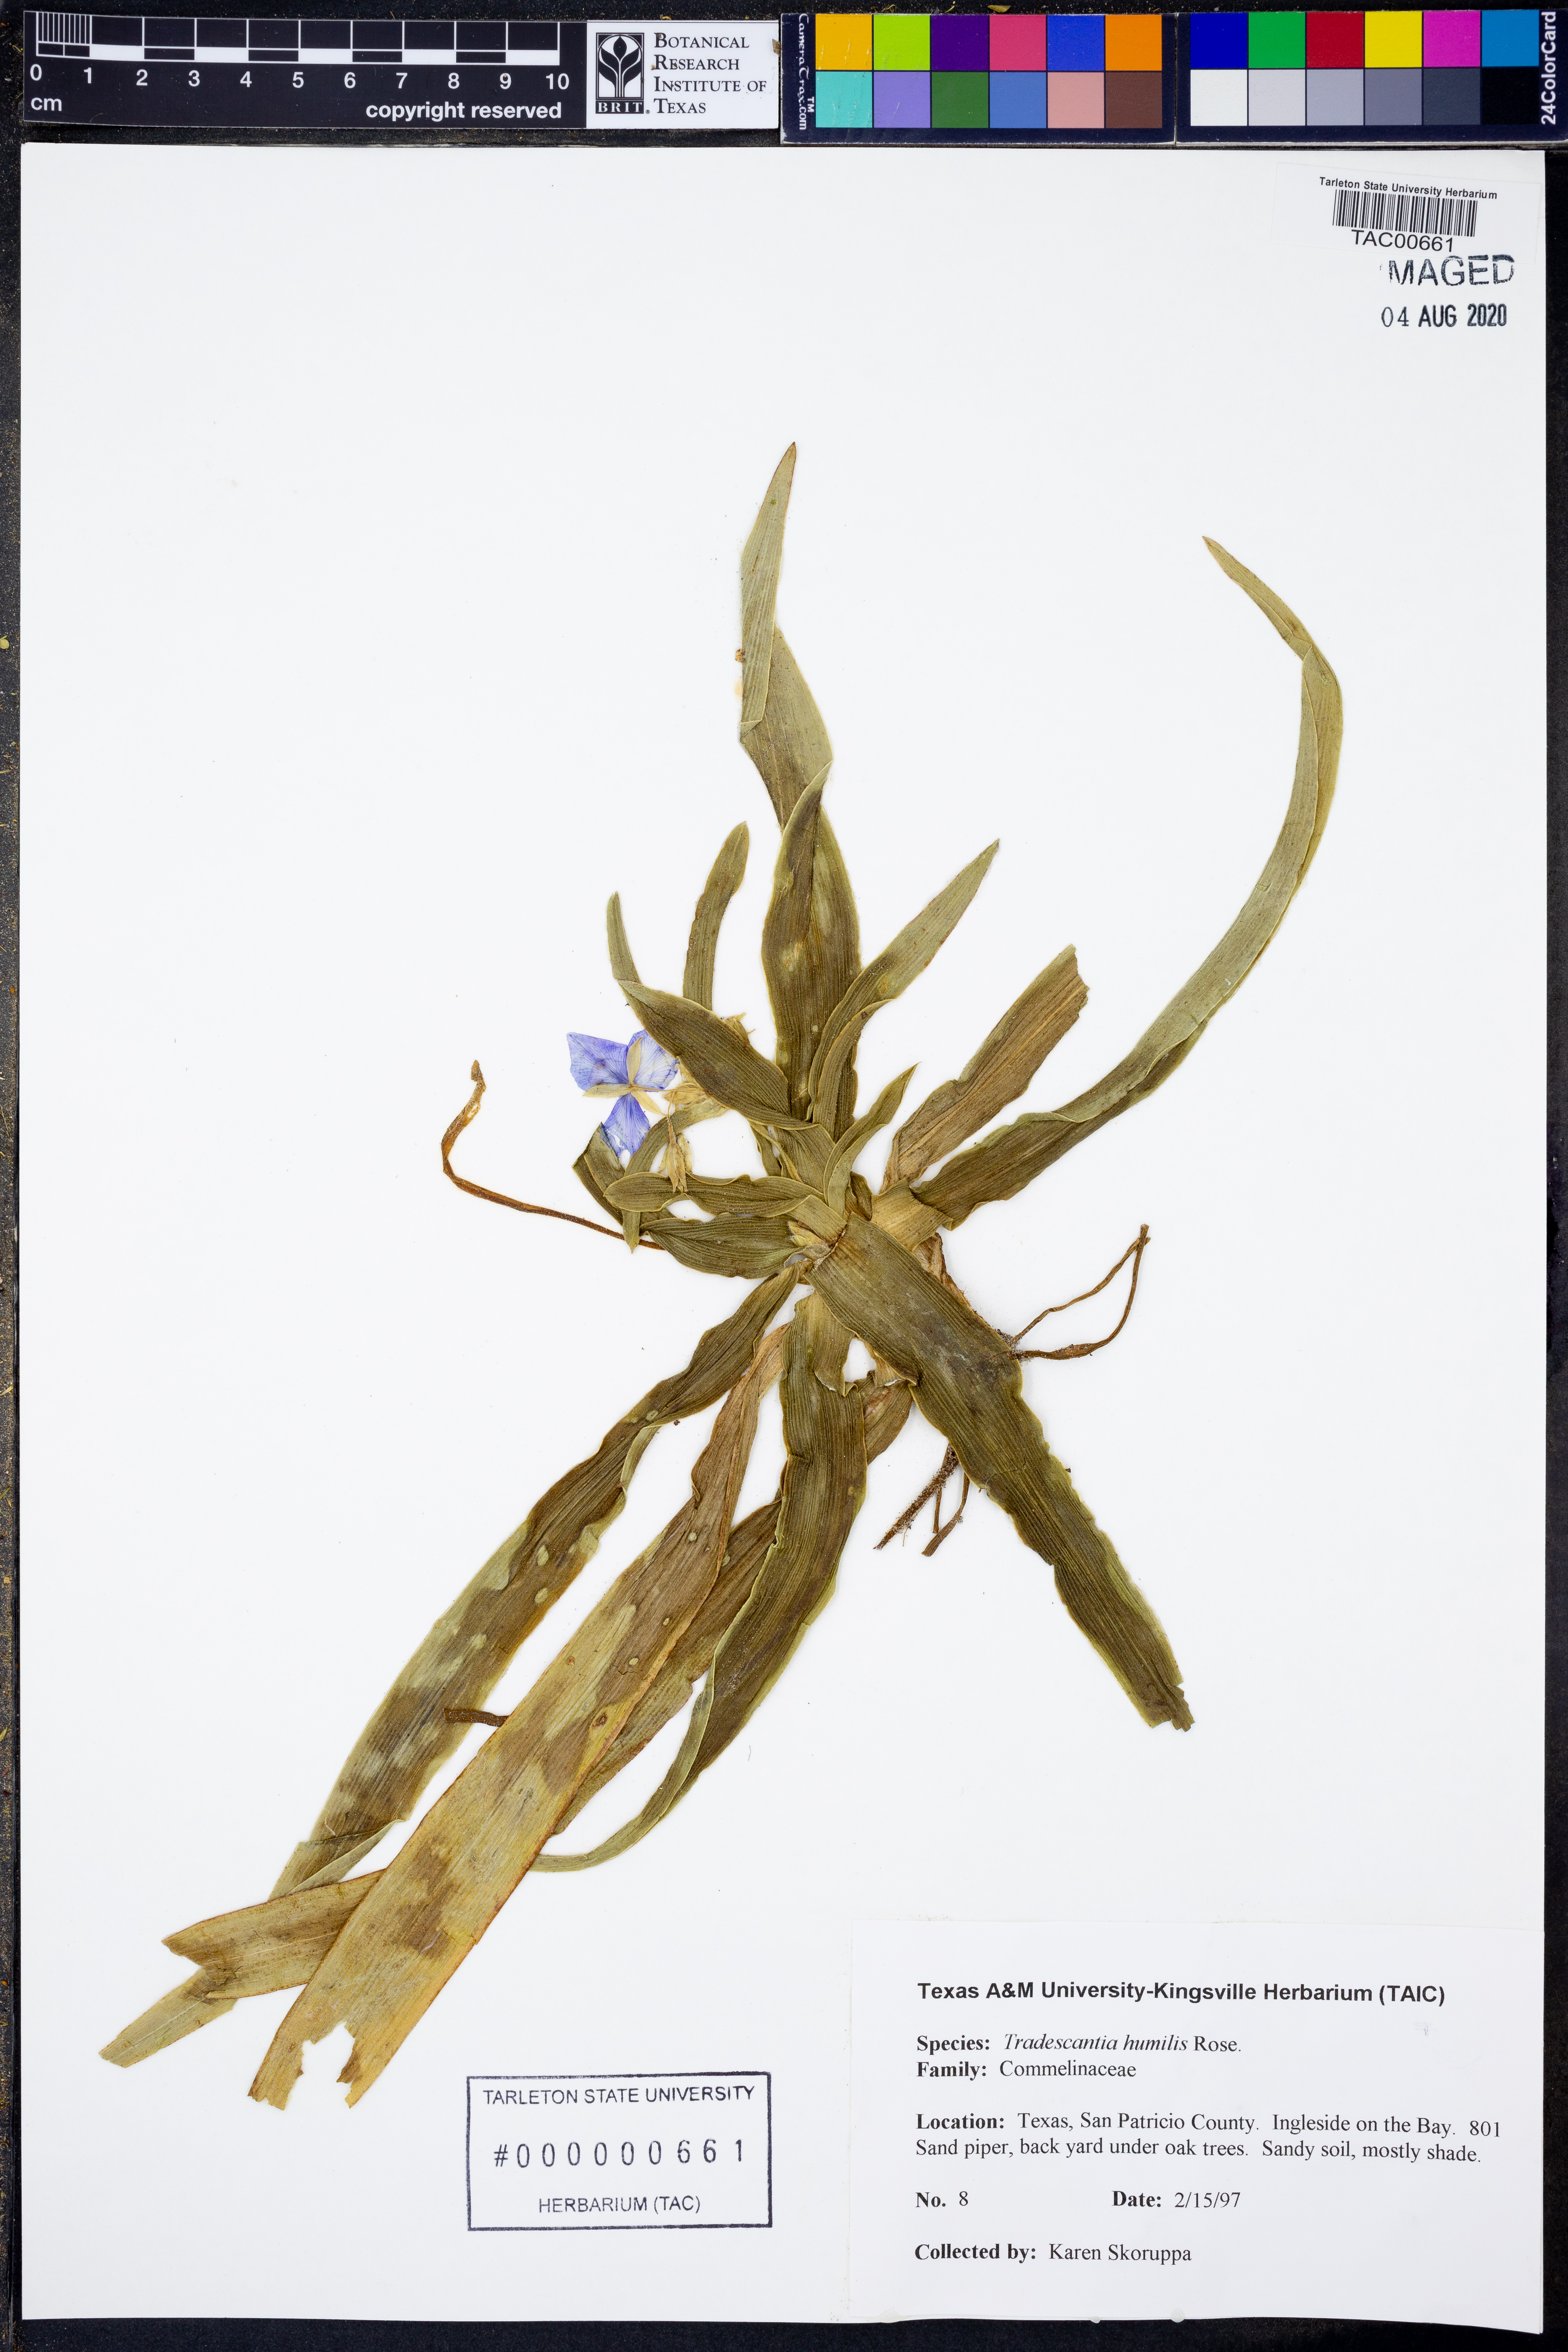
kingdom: Plantae
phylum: Tracheophyta
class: Liliopsida
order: Commelinales
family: Commelinaceae
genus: Tradescantia
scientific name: Tradescantia humilis
